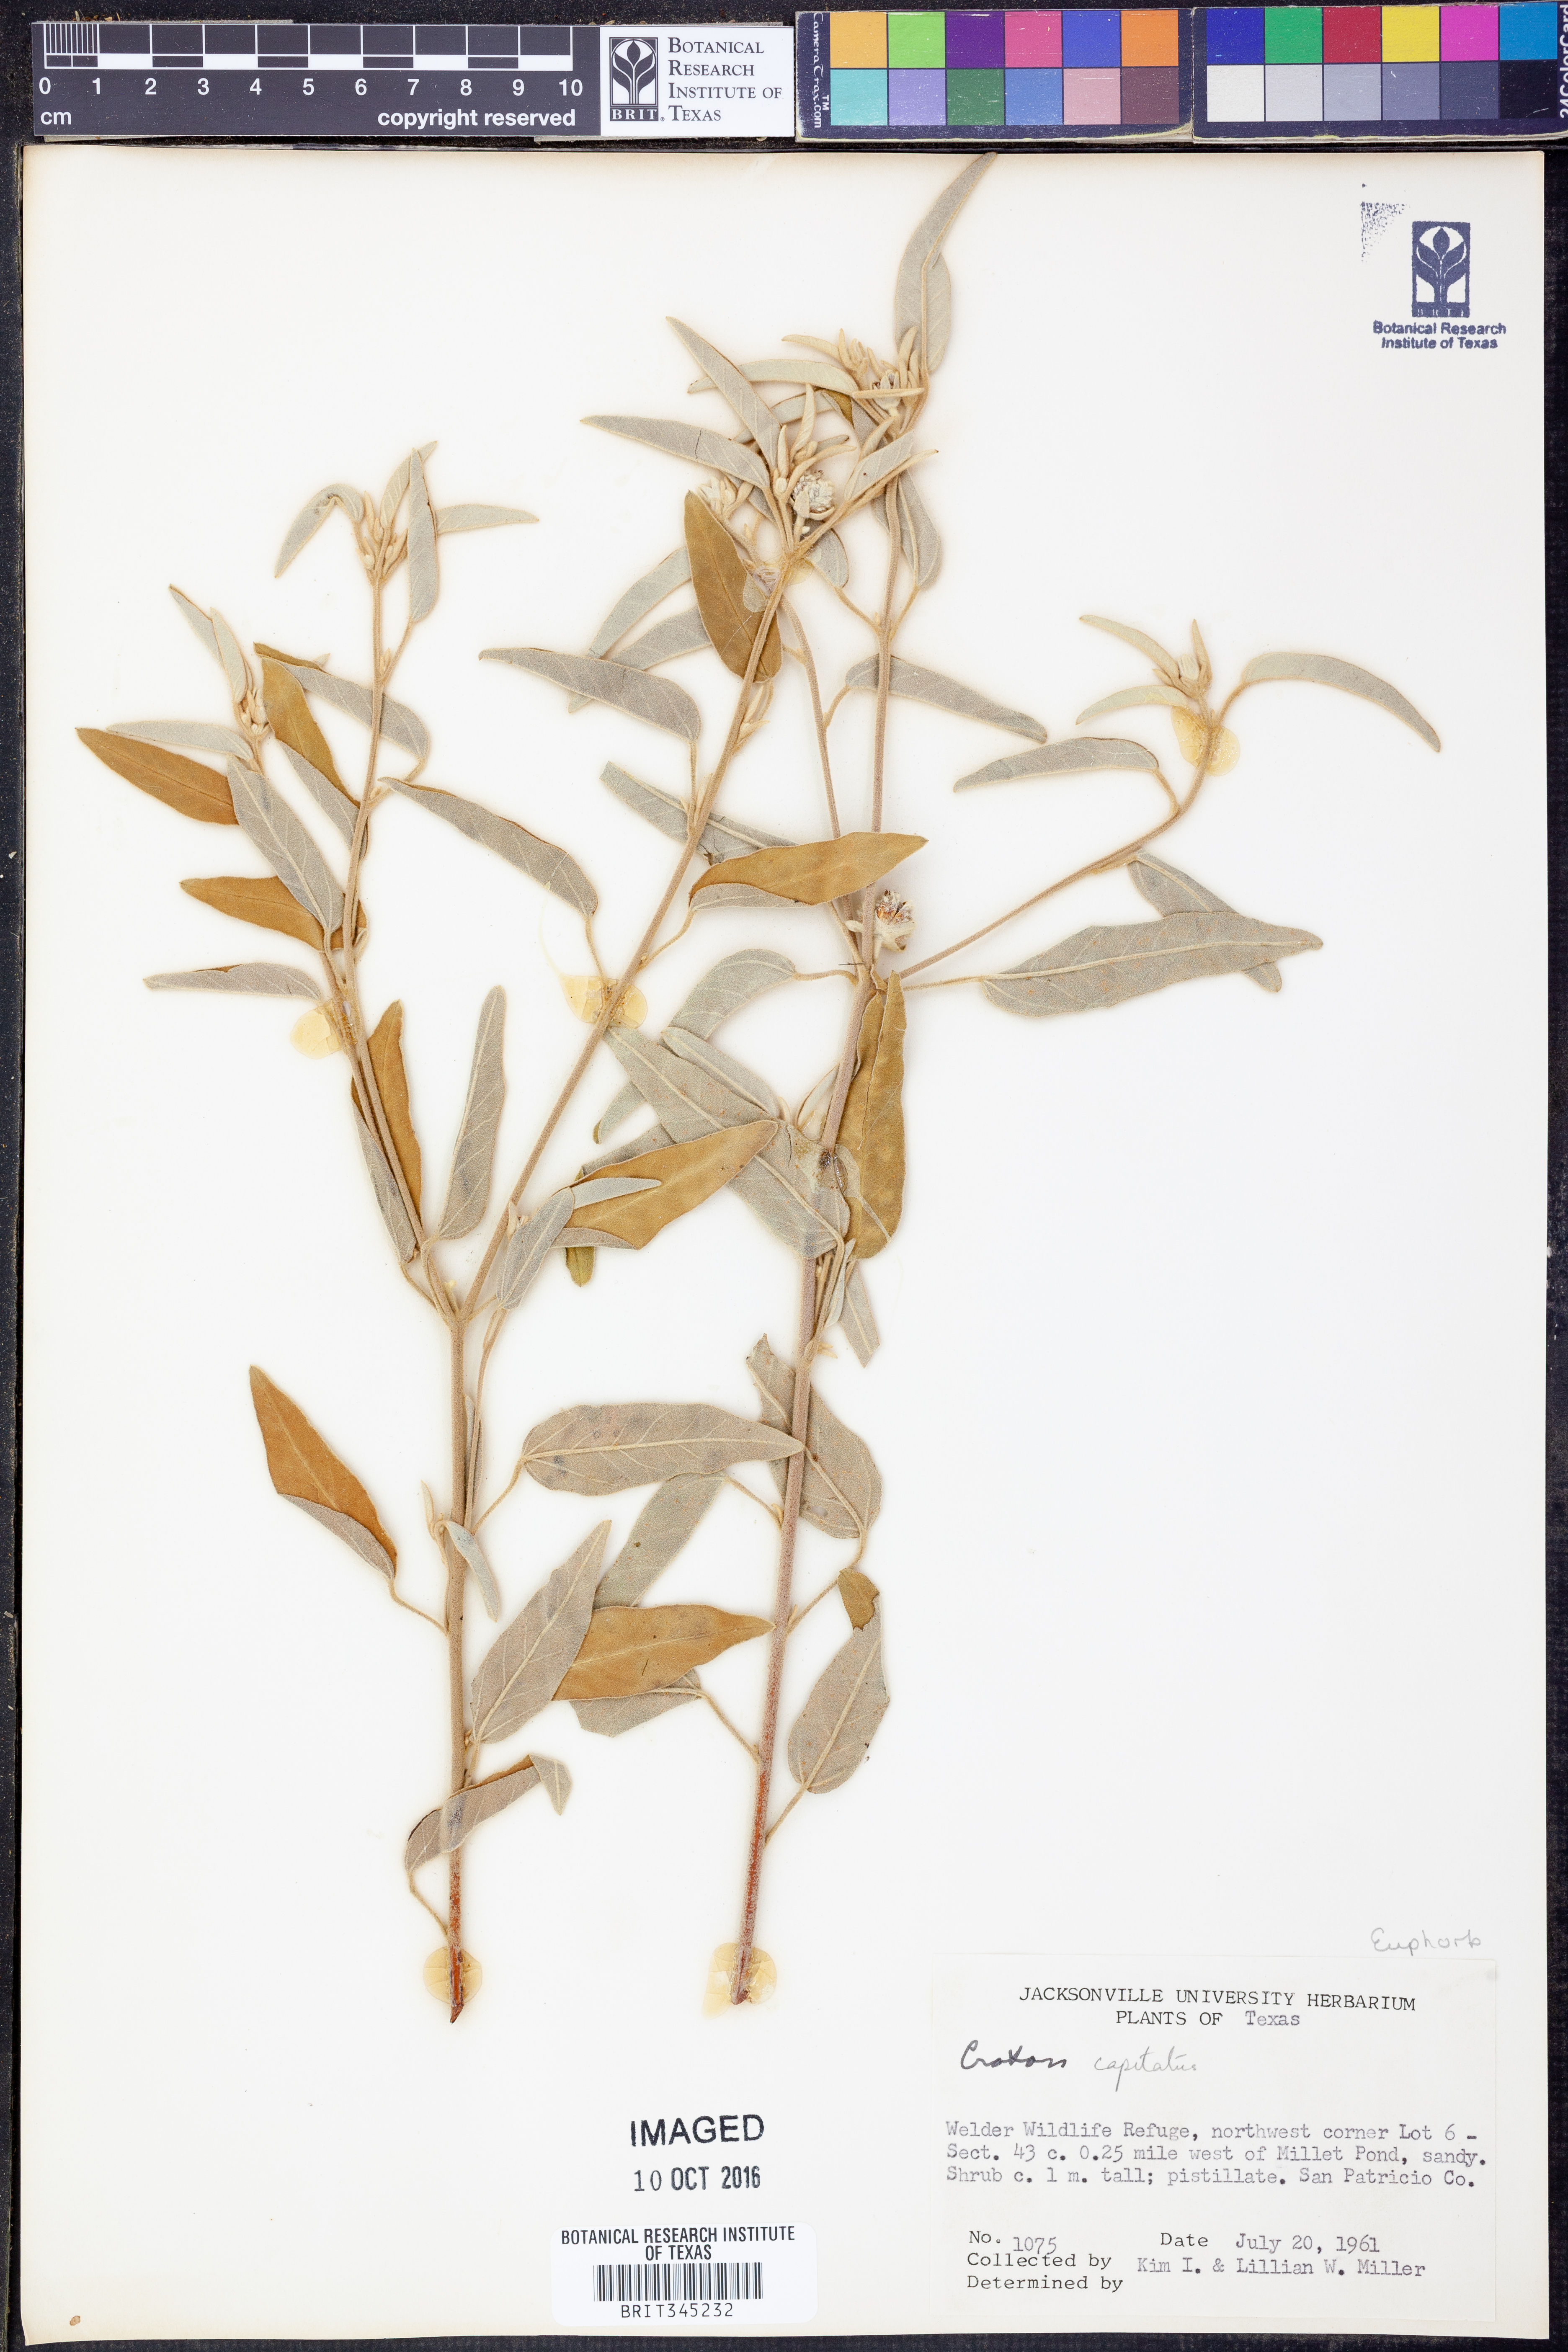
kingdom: Plantae
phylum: Tracheophyta
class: Magnoliopsida
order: Malpighiales
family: Euphorbiaceae
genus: Croton
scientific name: Croton capitatus
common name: Woolly croton
